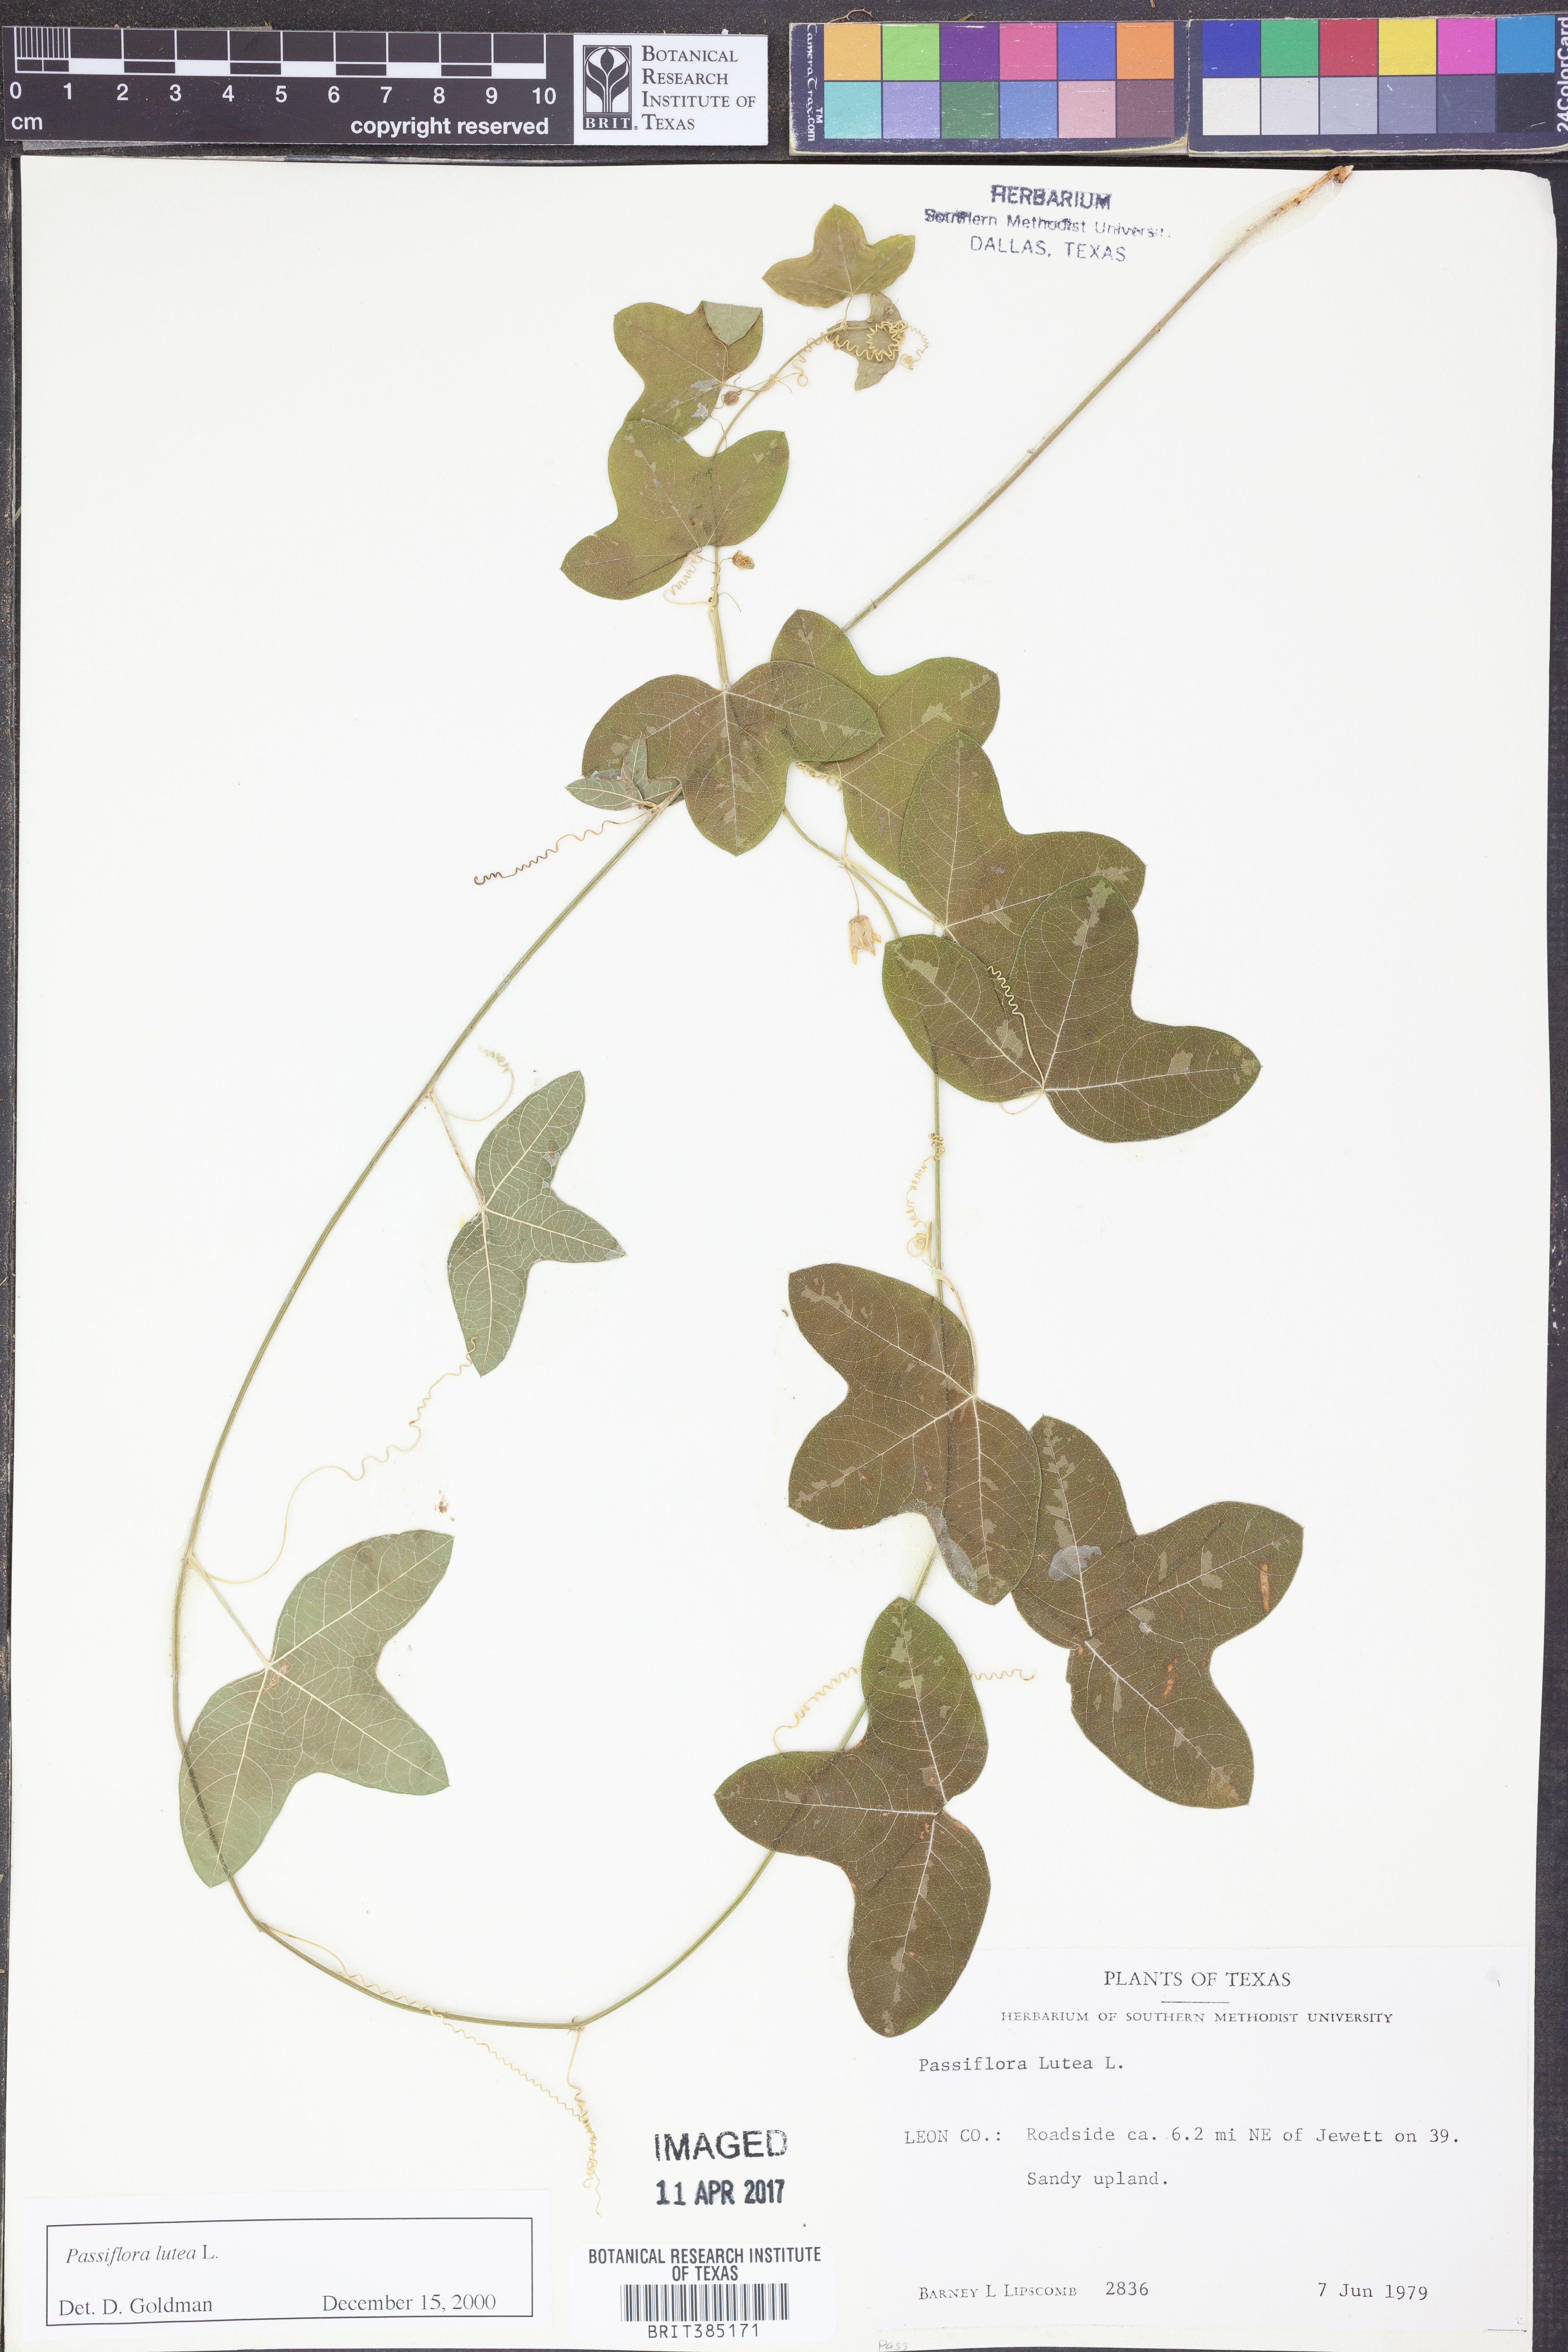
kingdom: Plantae
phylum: Tracheophyta
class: Magnoliopsida
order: Malpighiales
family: Passifloraceae
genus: Passiflora
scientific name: Passiflora lutea
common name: Yellow passionflower
